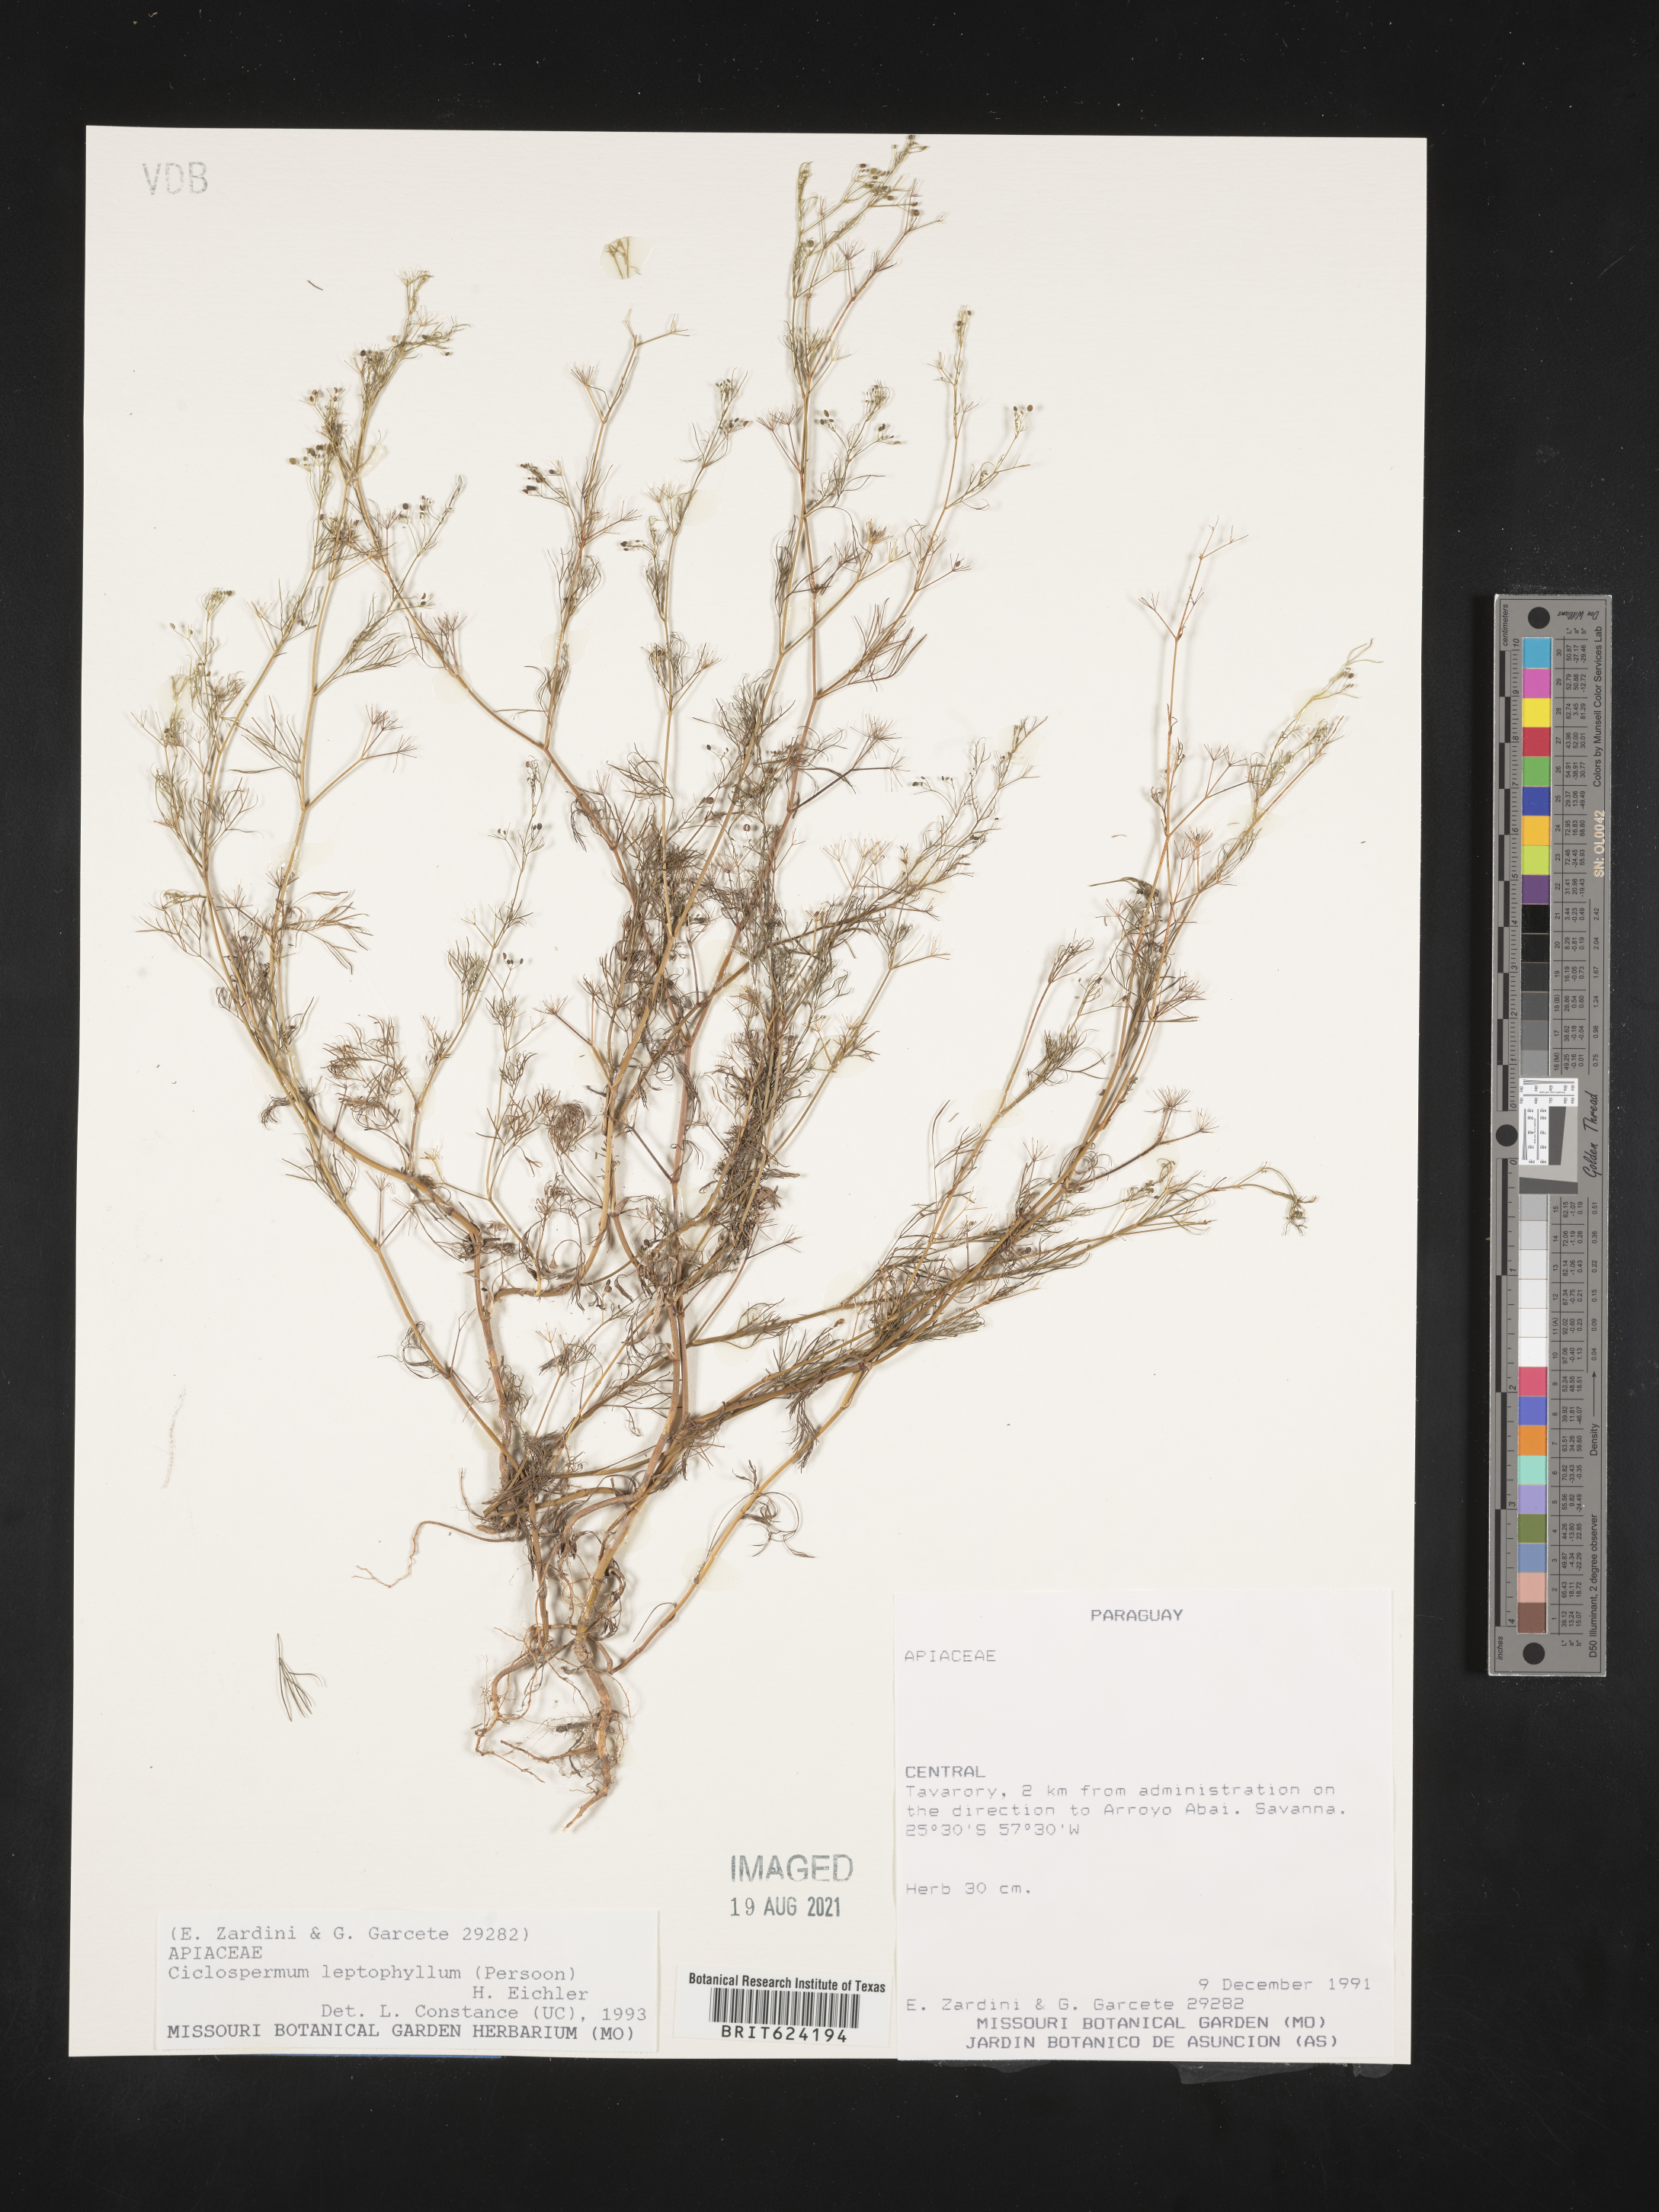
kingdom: Plantae
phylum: Tracheophyta
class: Magnoliopsida
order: Apiales
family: Apiaceae
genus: Cyclospermum
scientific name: Cyclospermum
